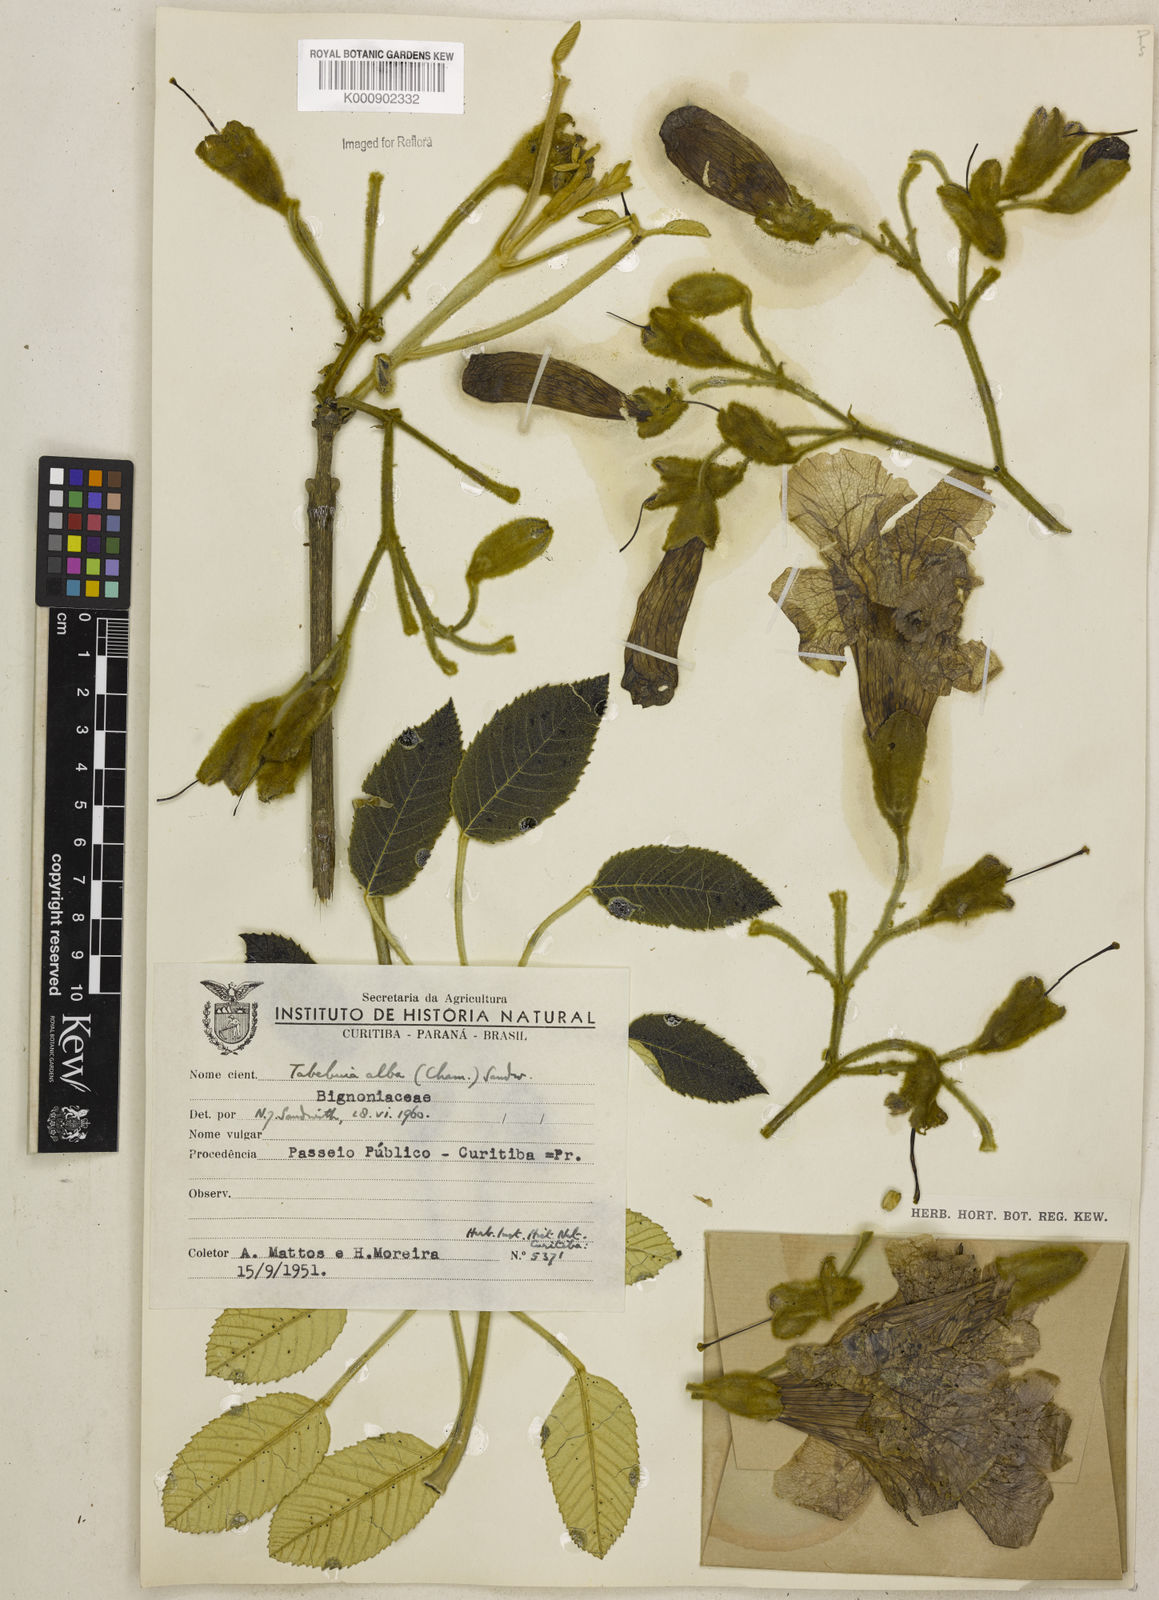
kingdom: Plantae
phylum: Tracheophyta
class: Magnoliopsida
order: Lamiales
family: Bignoniaceae
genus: Handroanthus
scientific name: Handroanthus albus
